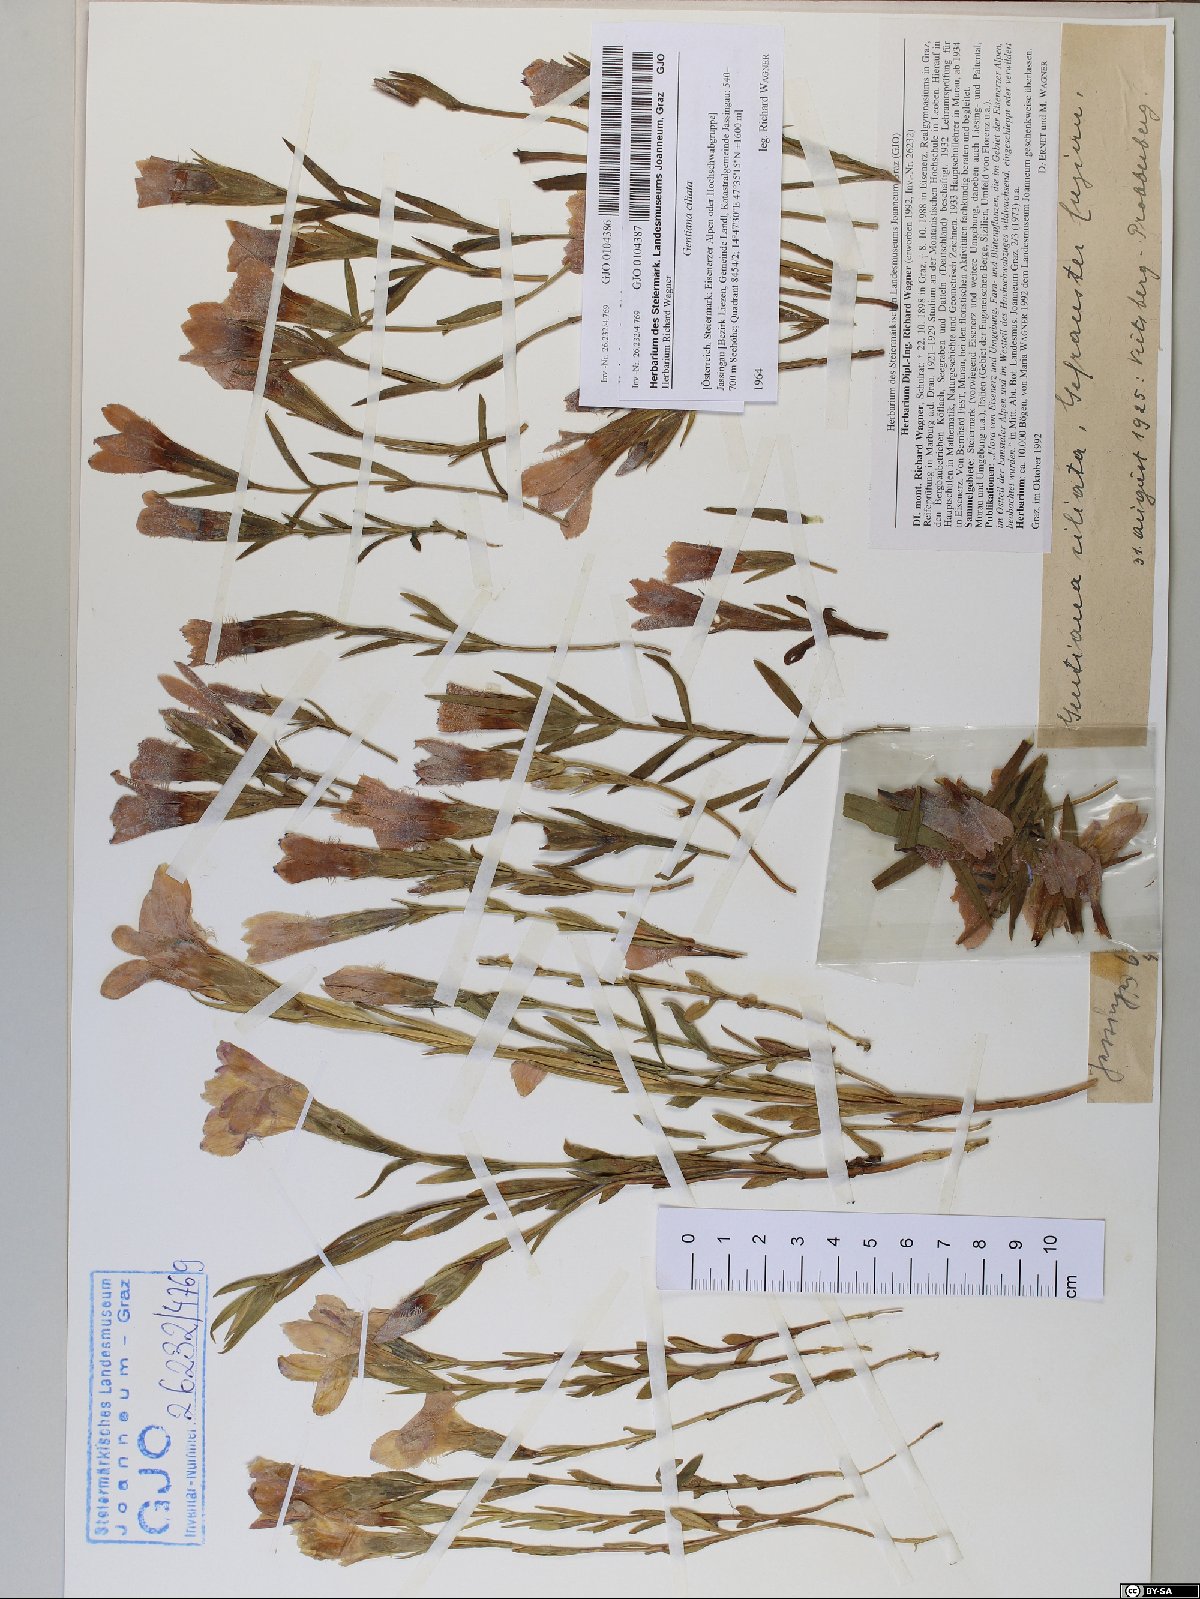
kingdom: Plantae
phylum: Tracheophyta
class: Magnoliopsida
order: Gentianales
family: Gentianaceae
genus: Gentianopsis
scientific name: Gentianopsis ciliata
